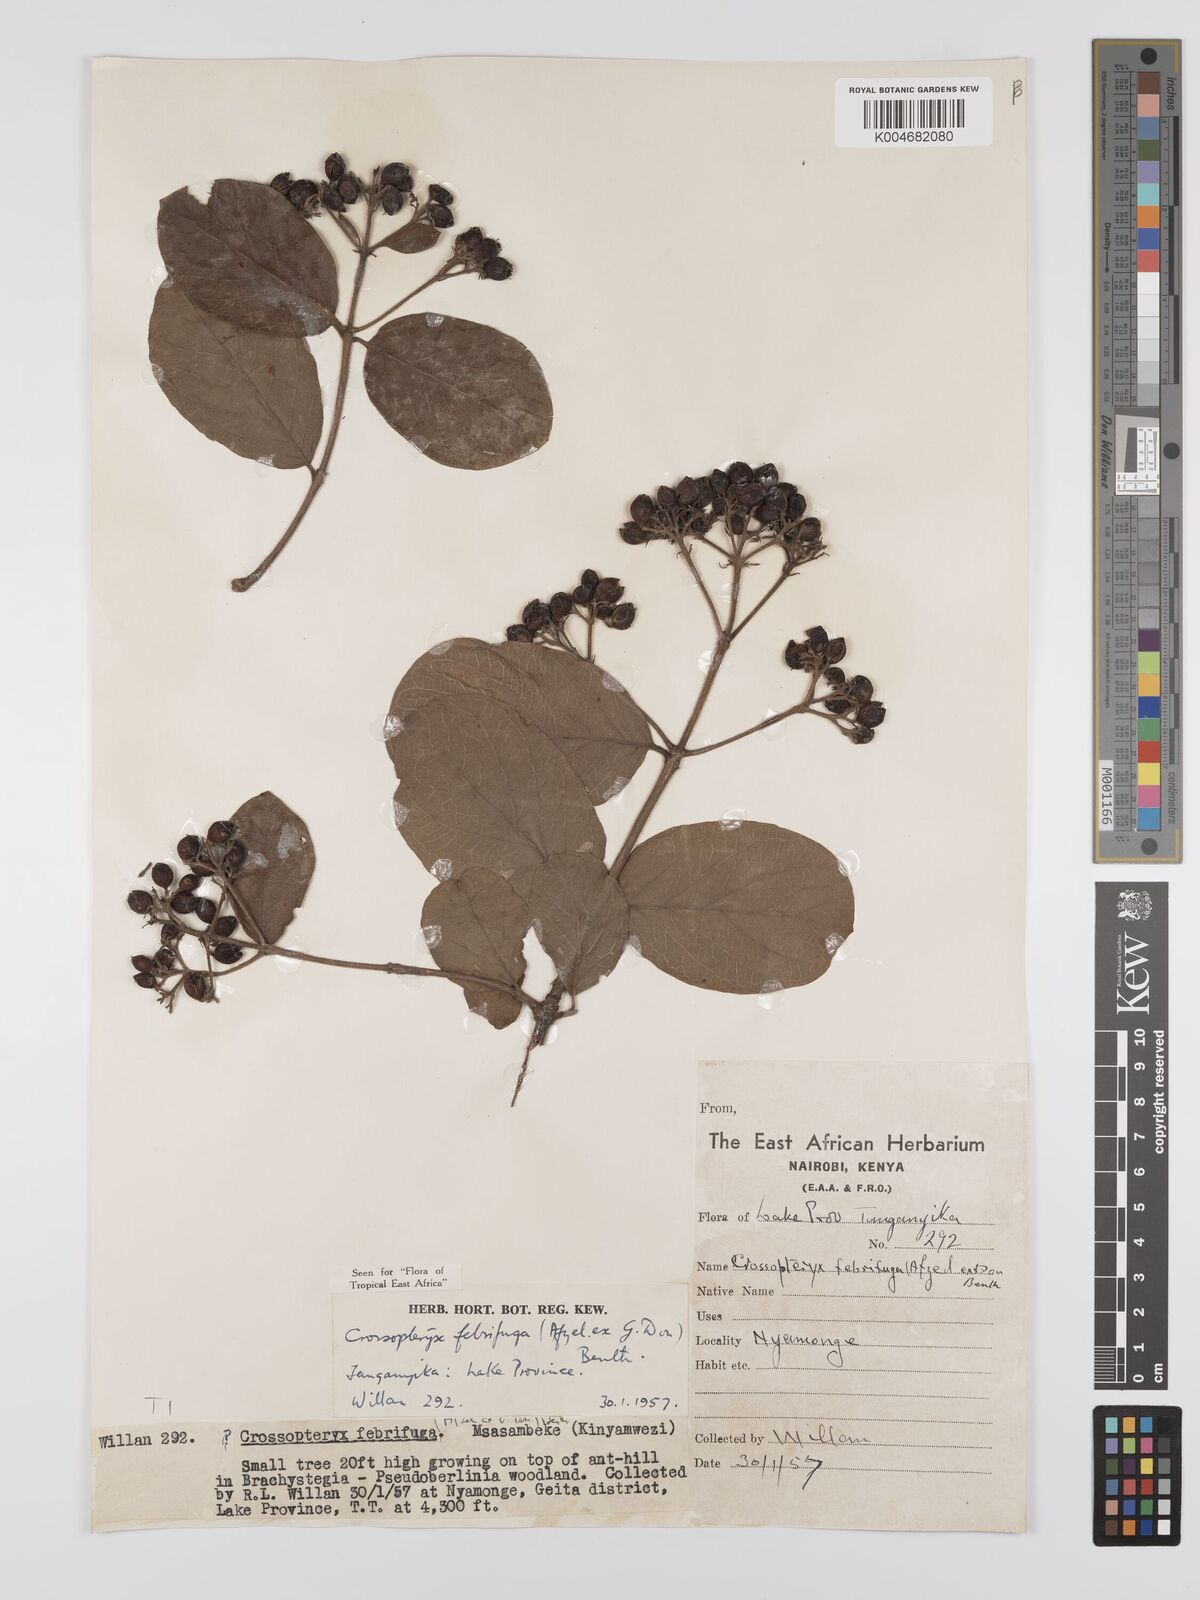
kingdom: Plantae
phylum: Tracheophyta
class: Magnoliopsida
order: Gentianales
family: Rubiaceae
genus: Crossopteryx
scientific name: Crossopteryx febrifuga
